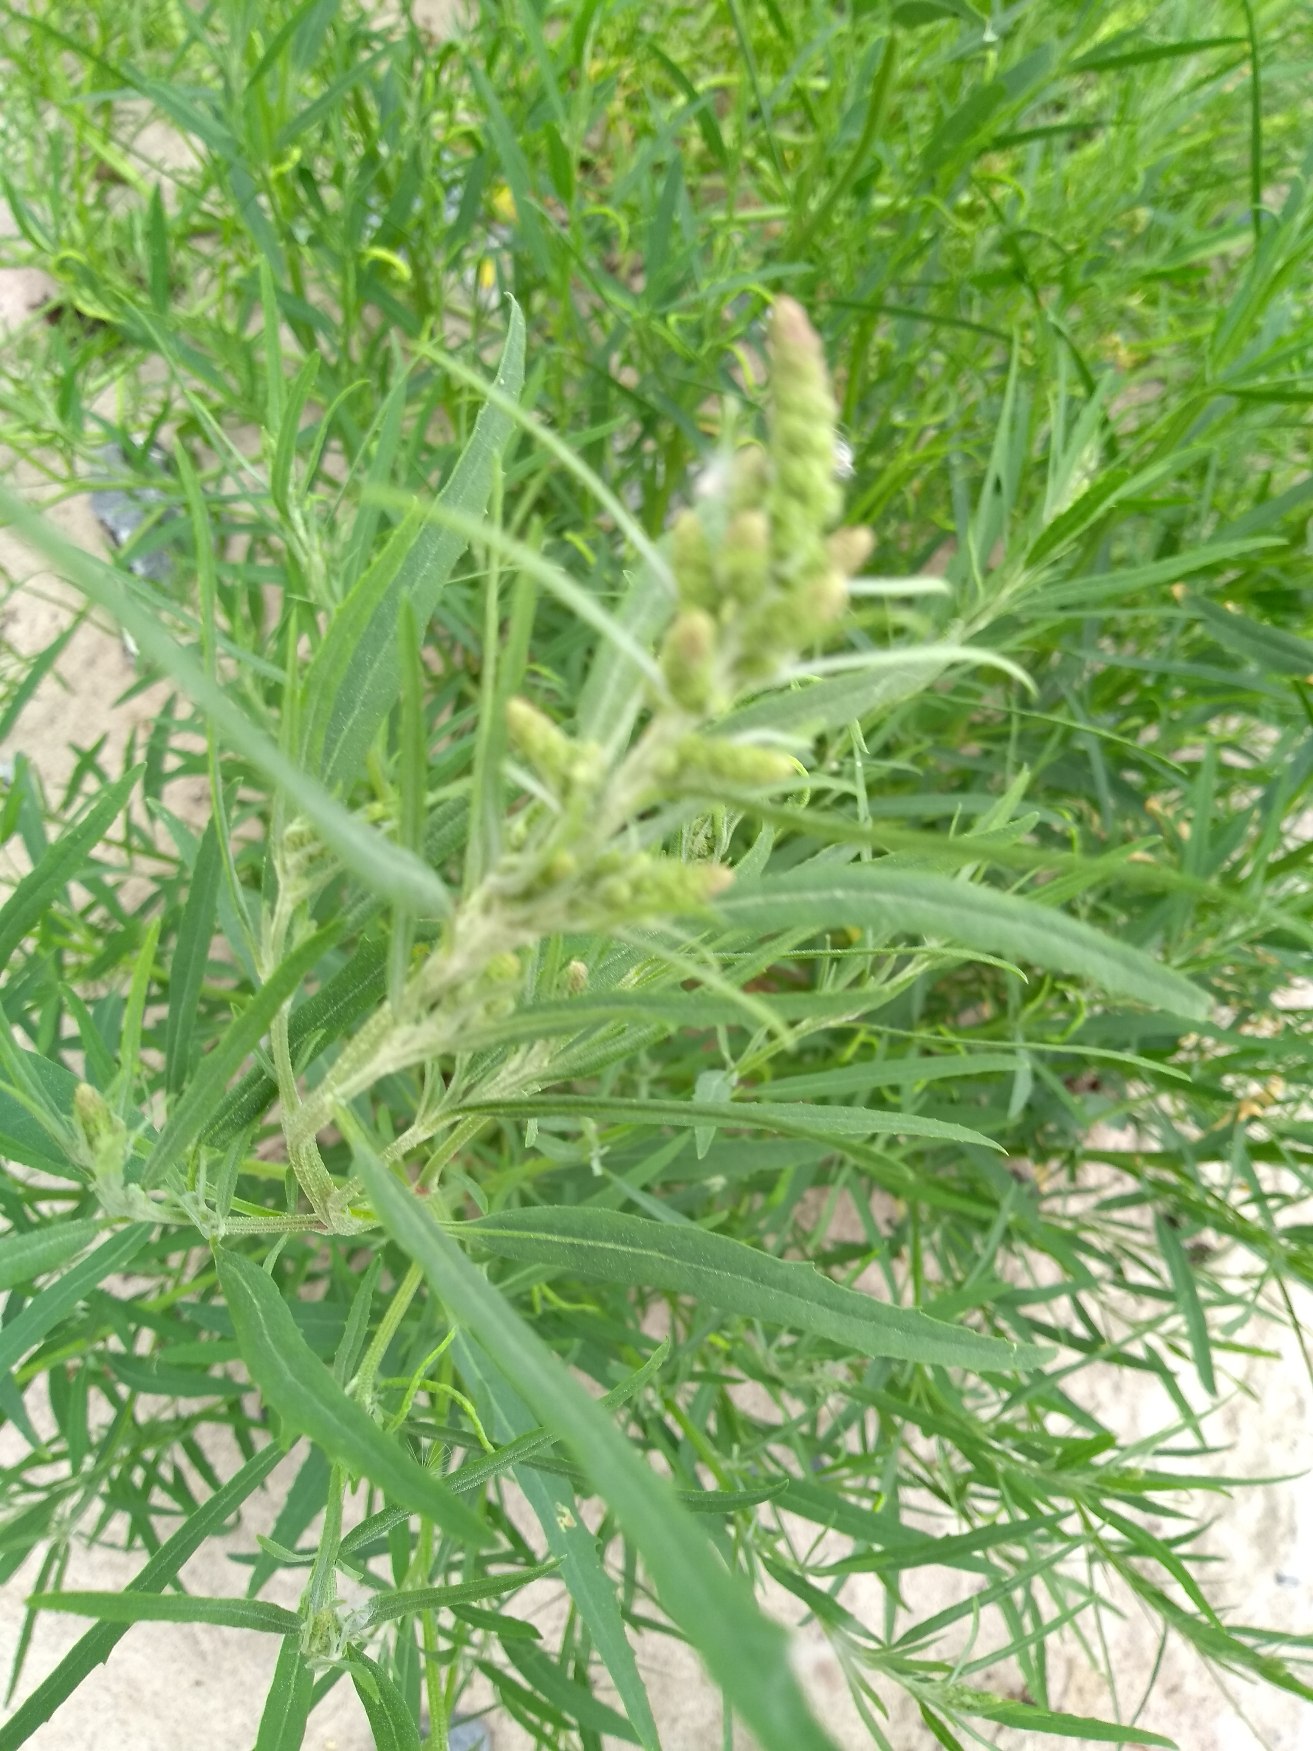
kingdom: Plantae
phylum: Tracheophyta
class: Magnoliopsida
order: Caryophyllales
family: Amaranthaceae
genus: Atriplex
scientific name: Atriplex littoralis
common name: Strand-mælde
